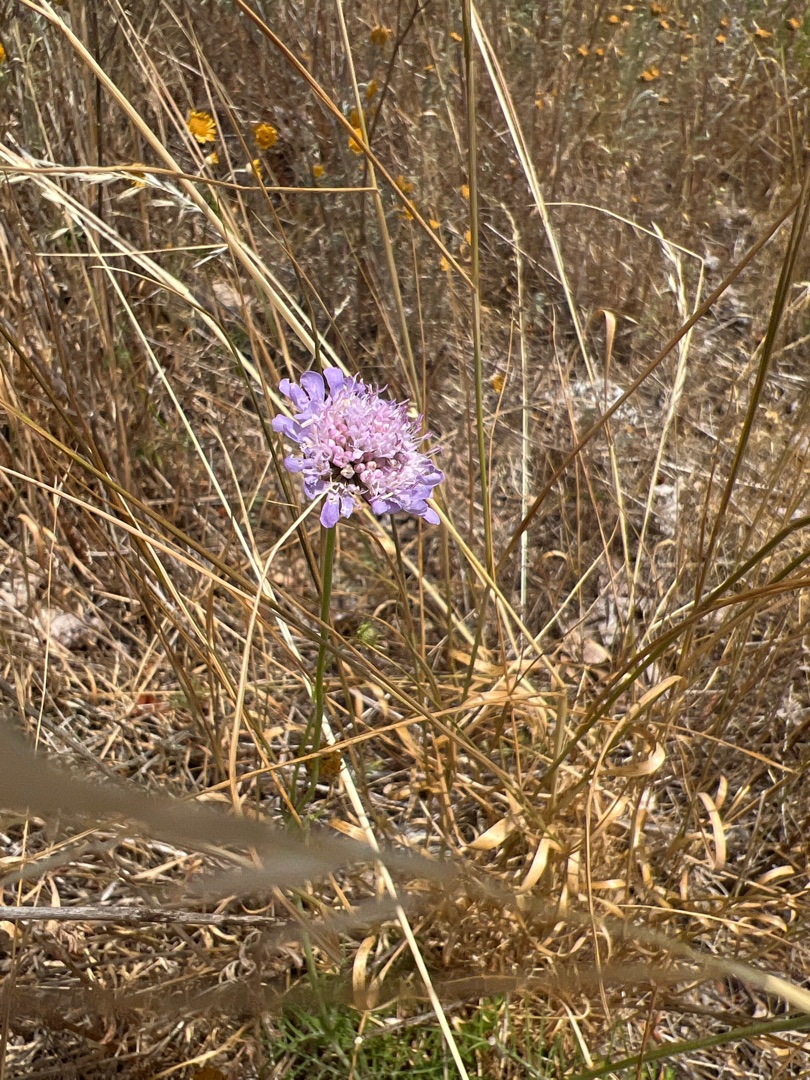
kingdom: Plantae
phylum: Tracheophyta
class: Magnoliopsida
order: Dipsacales
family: Caprifoliaceae
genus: Scabiosa
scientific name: Scabiosa columbaria
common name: Due-skabiose
